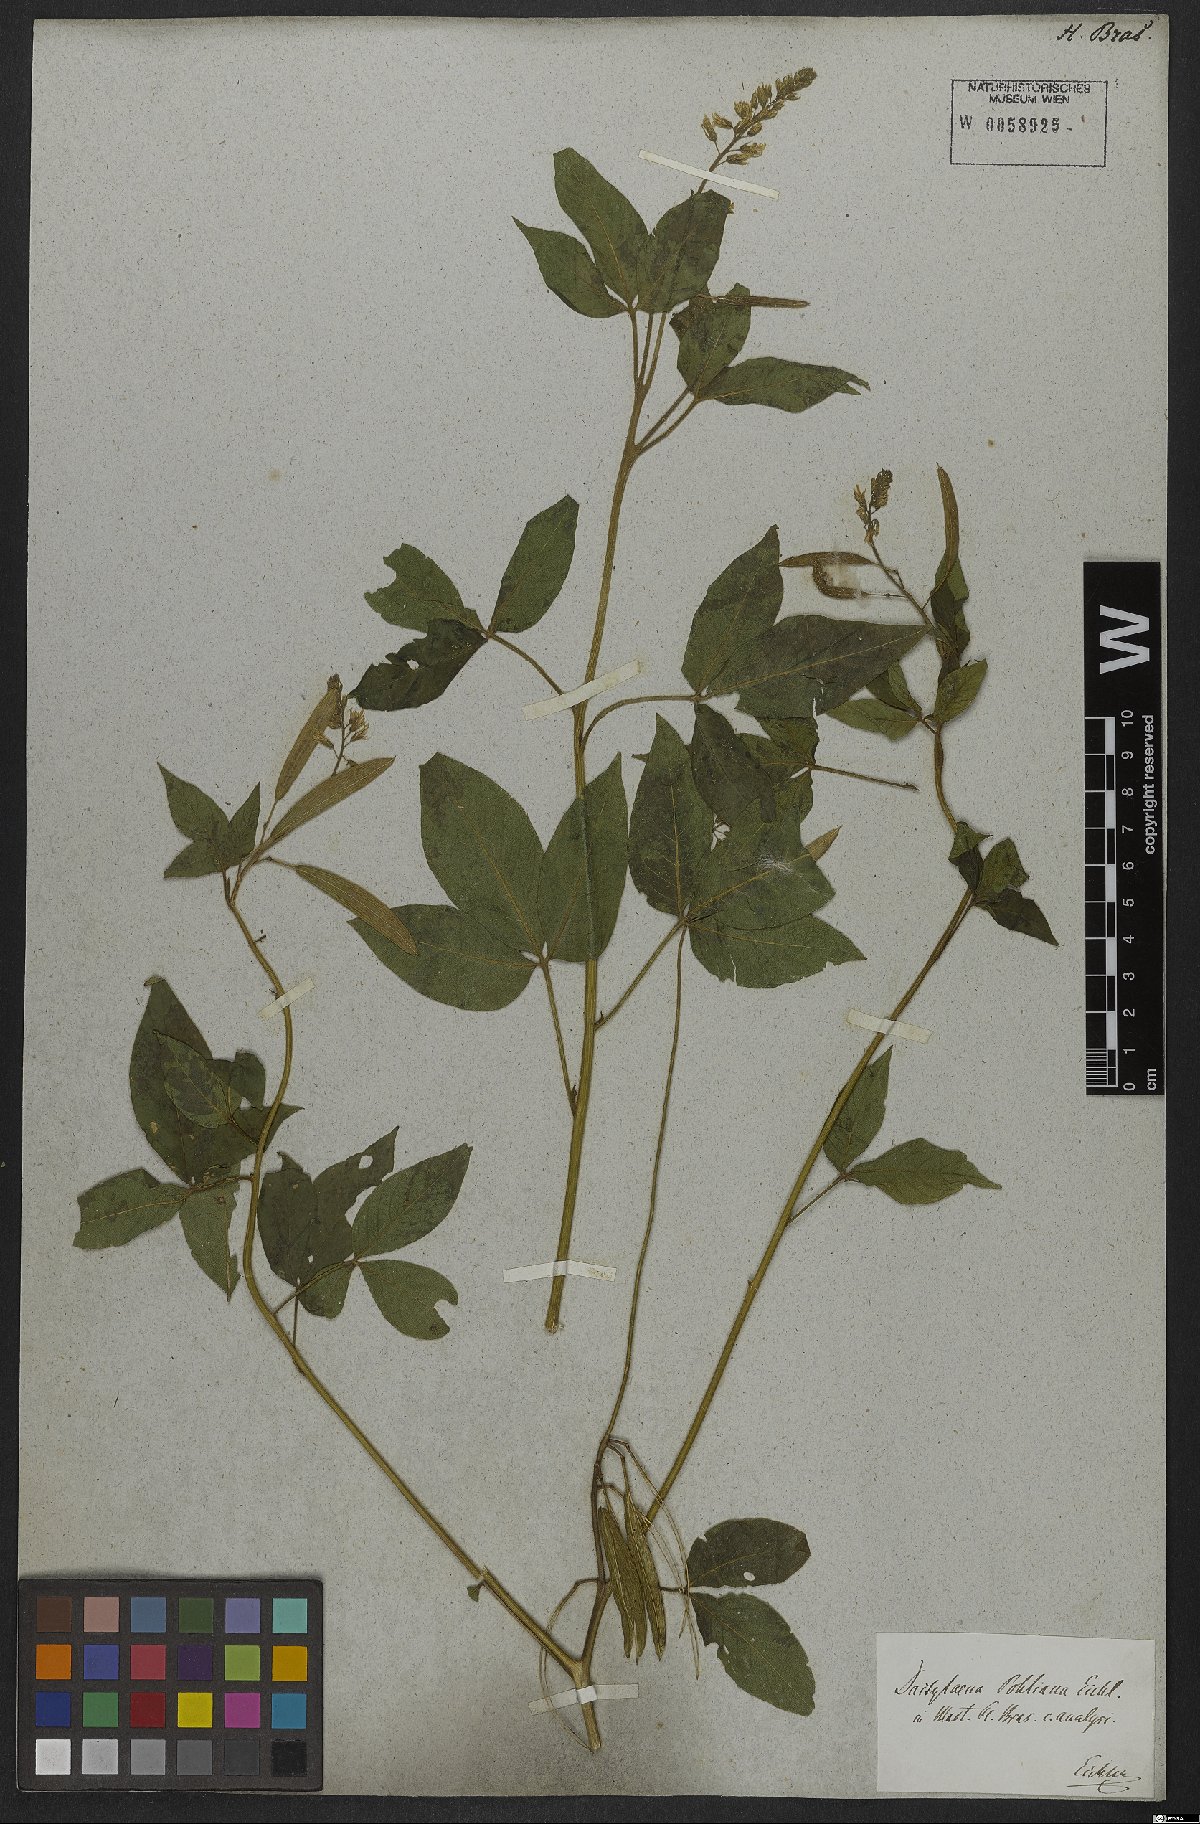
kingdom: Plantae
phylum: Tracheophyta
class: Magnoliopsida
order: Brassicales
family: Cleomaceae
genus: Dactylaena
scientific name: Dactylaena pohliana
